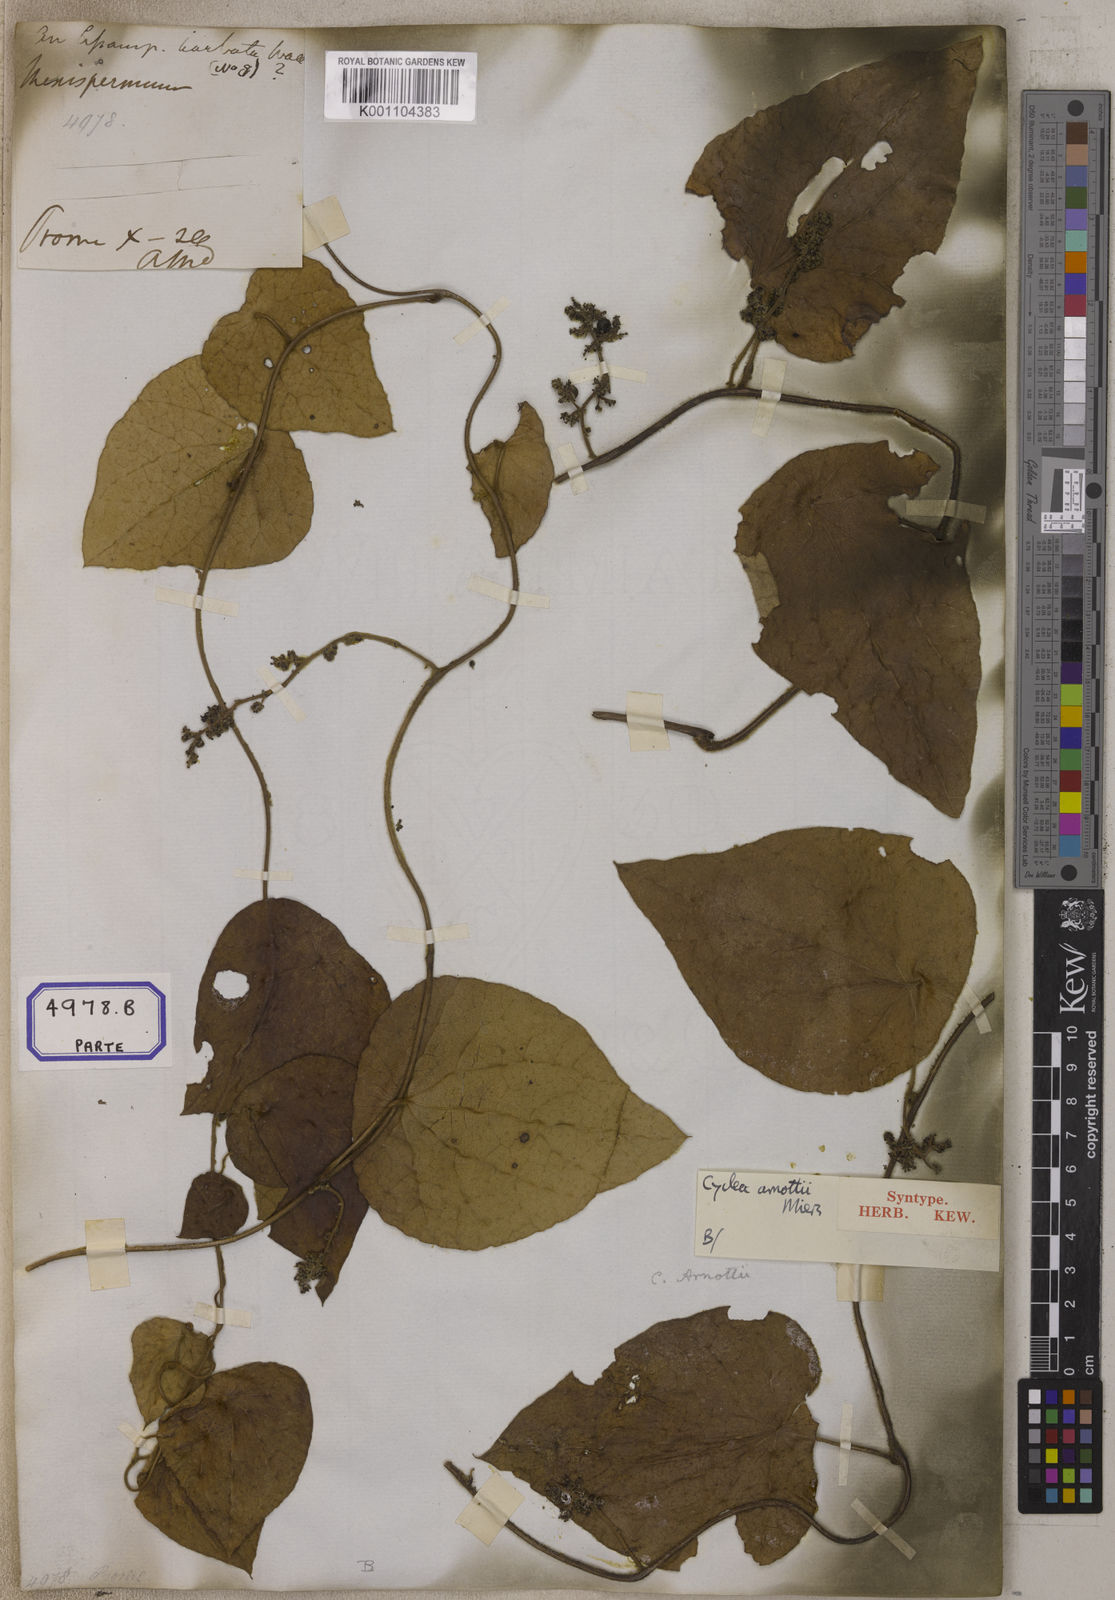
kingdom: Plantae
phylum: Tracheophyta
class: Magnoliopsida
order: Ranunculales
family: Menispermaceae
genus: Cissampelos
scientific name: Cissampelos
